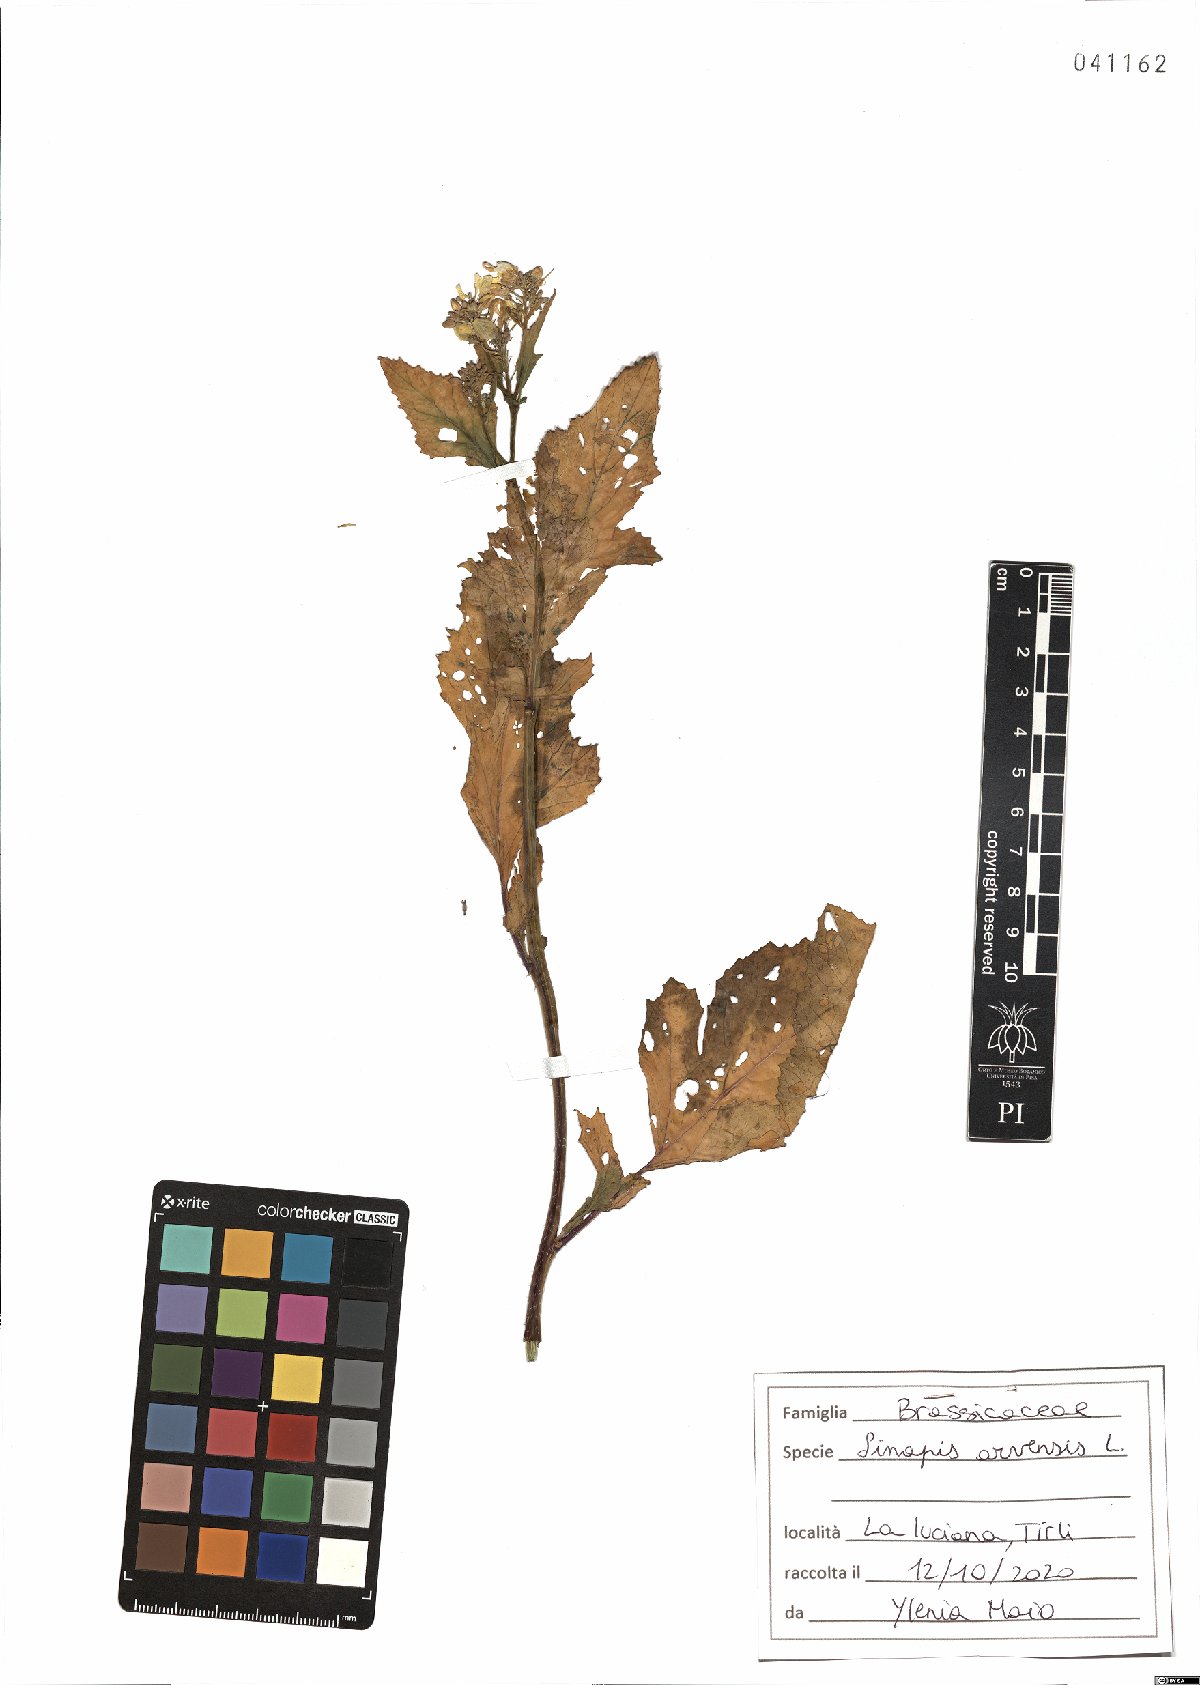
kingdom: Plantae
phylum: Tracheophyta
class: Magnoliopsida
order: Brassicales
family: Brassicaceae
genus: Sinapis
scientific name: Sinapis arvensis
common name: Charlock
